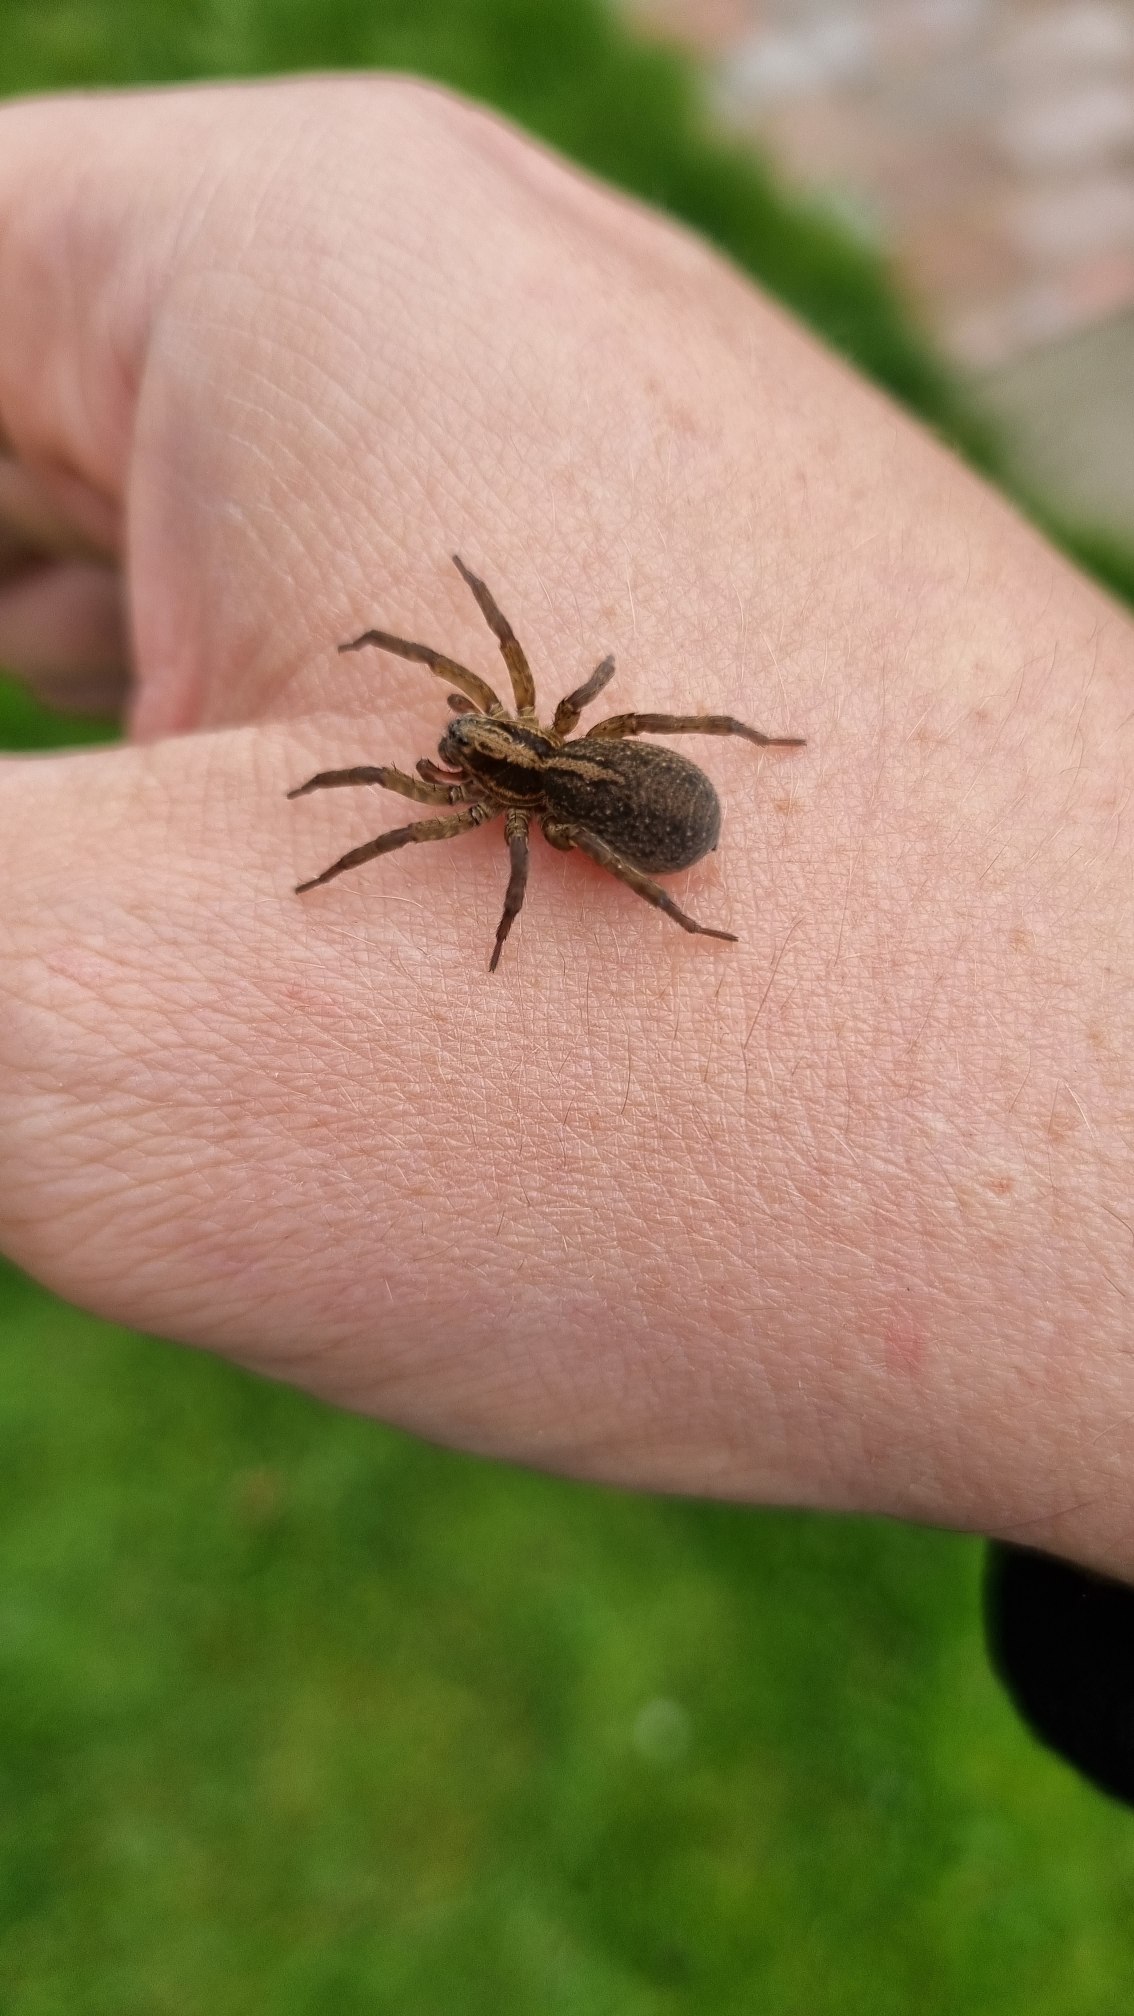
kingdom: Animalia
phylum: Arthropoda
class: Arachnida
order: Araneae
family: Lycosidae
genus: Trochosa
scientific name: Trochosa ruricola
